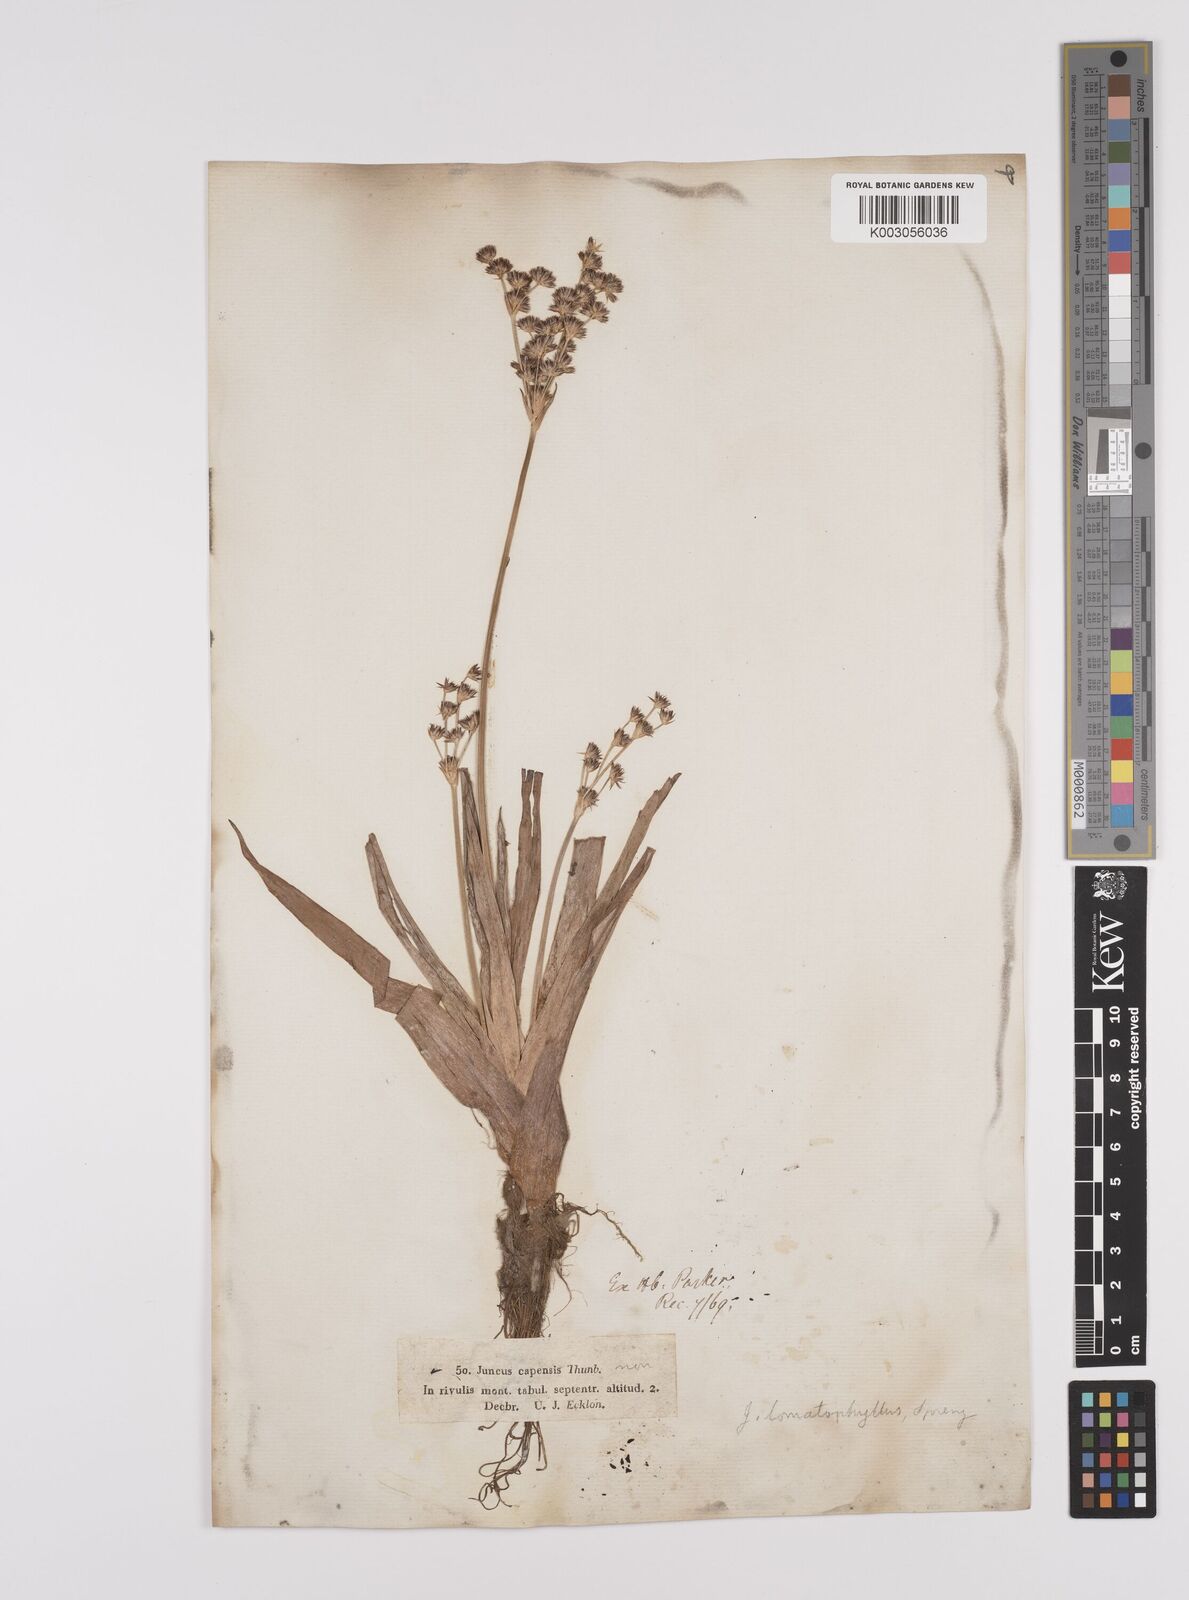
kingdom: Plantae
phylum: Tracheophyta
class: Liliopsida
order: Poales
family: Juncaceae
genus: Juncus
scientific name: Juncus lomatophyllus
